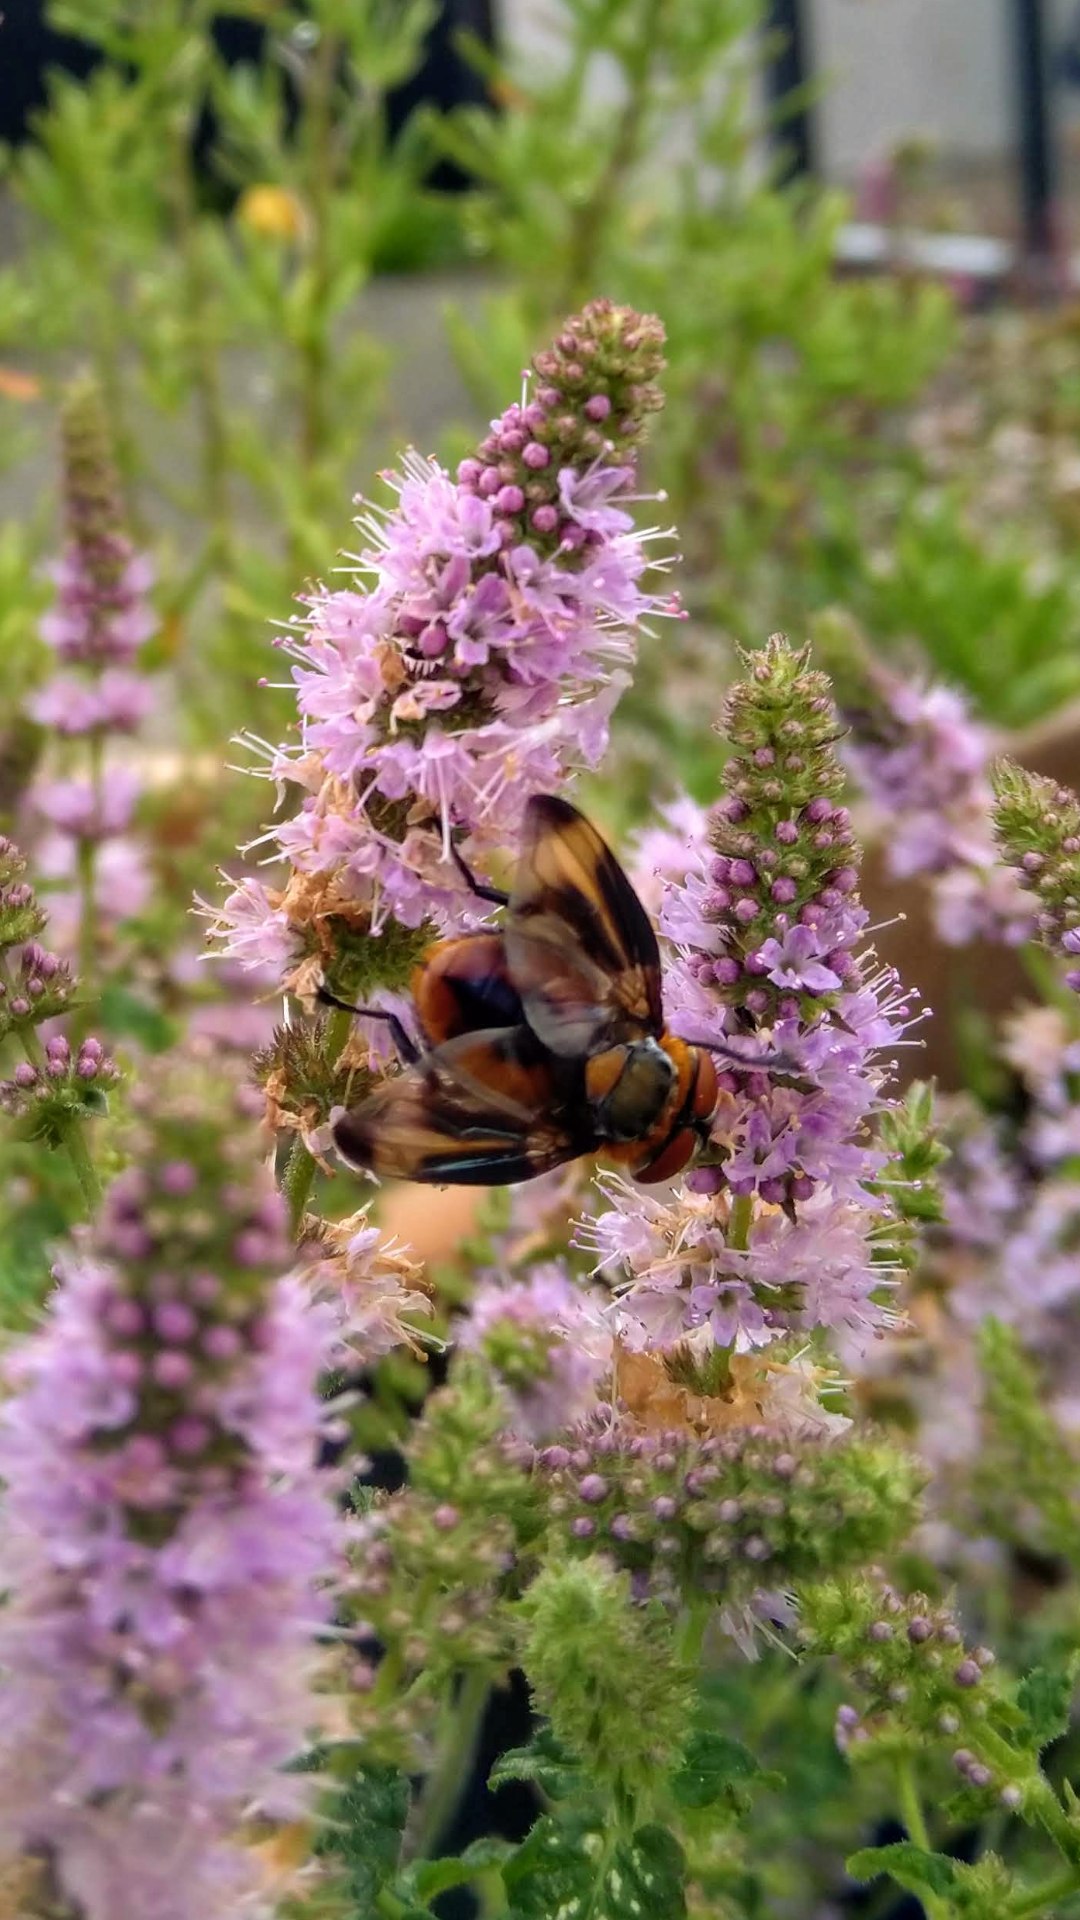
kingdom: Animalia
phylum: Arthropoda
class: Insecta
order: Diptera
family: Tachinidae
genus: Phasia
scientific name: Phasia hemiptera
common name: Blåvinget pragtsnylteflue
